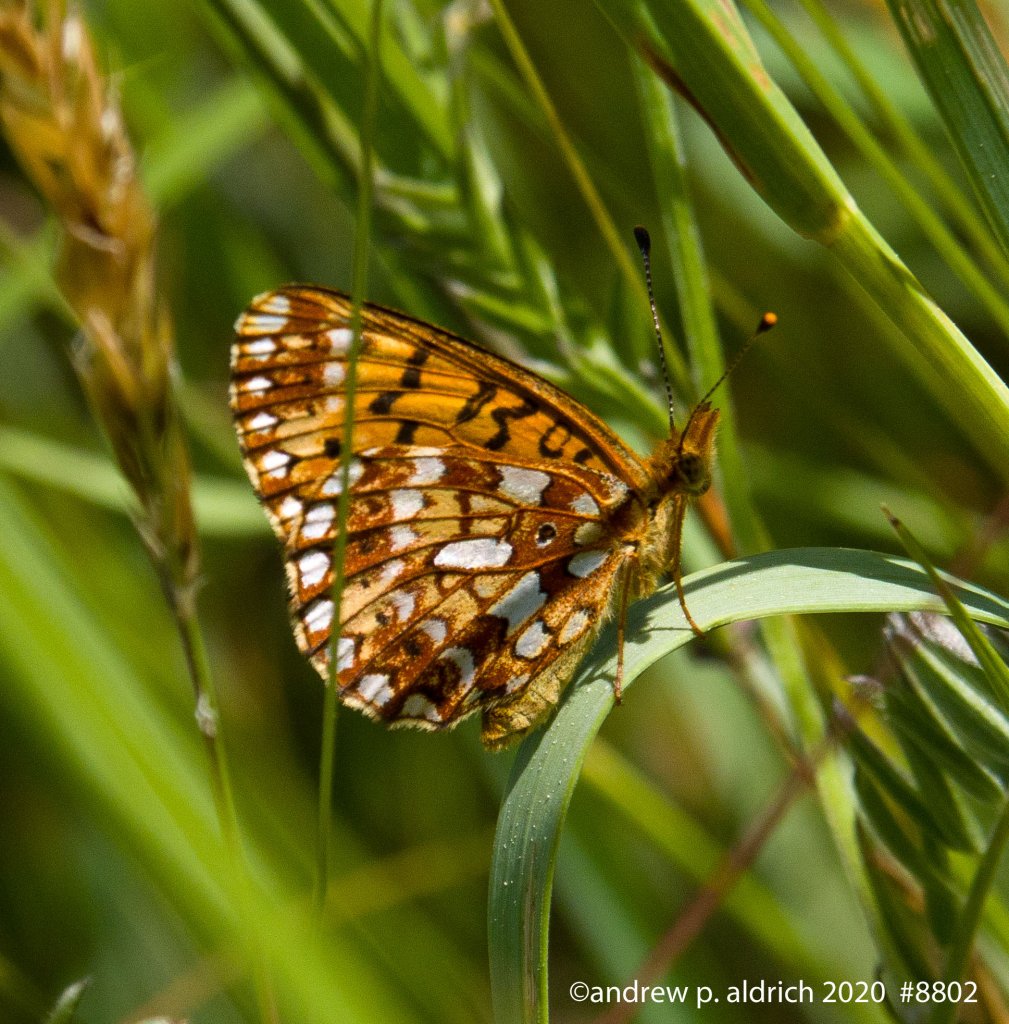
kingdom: Animalia
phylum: Arthropoda
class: Insecta
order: Lepidoptera
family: Nymphalidae
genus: Boloria
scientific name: Boloria selene
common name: Silver-bordered Fritillary
